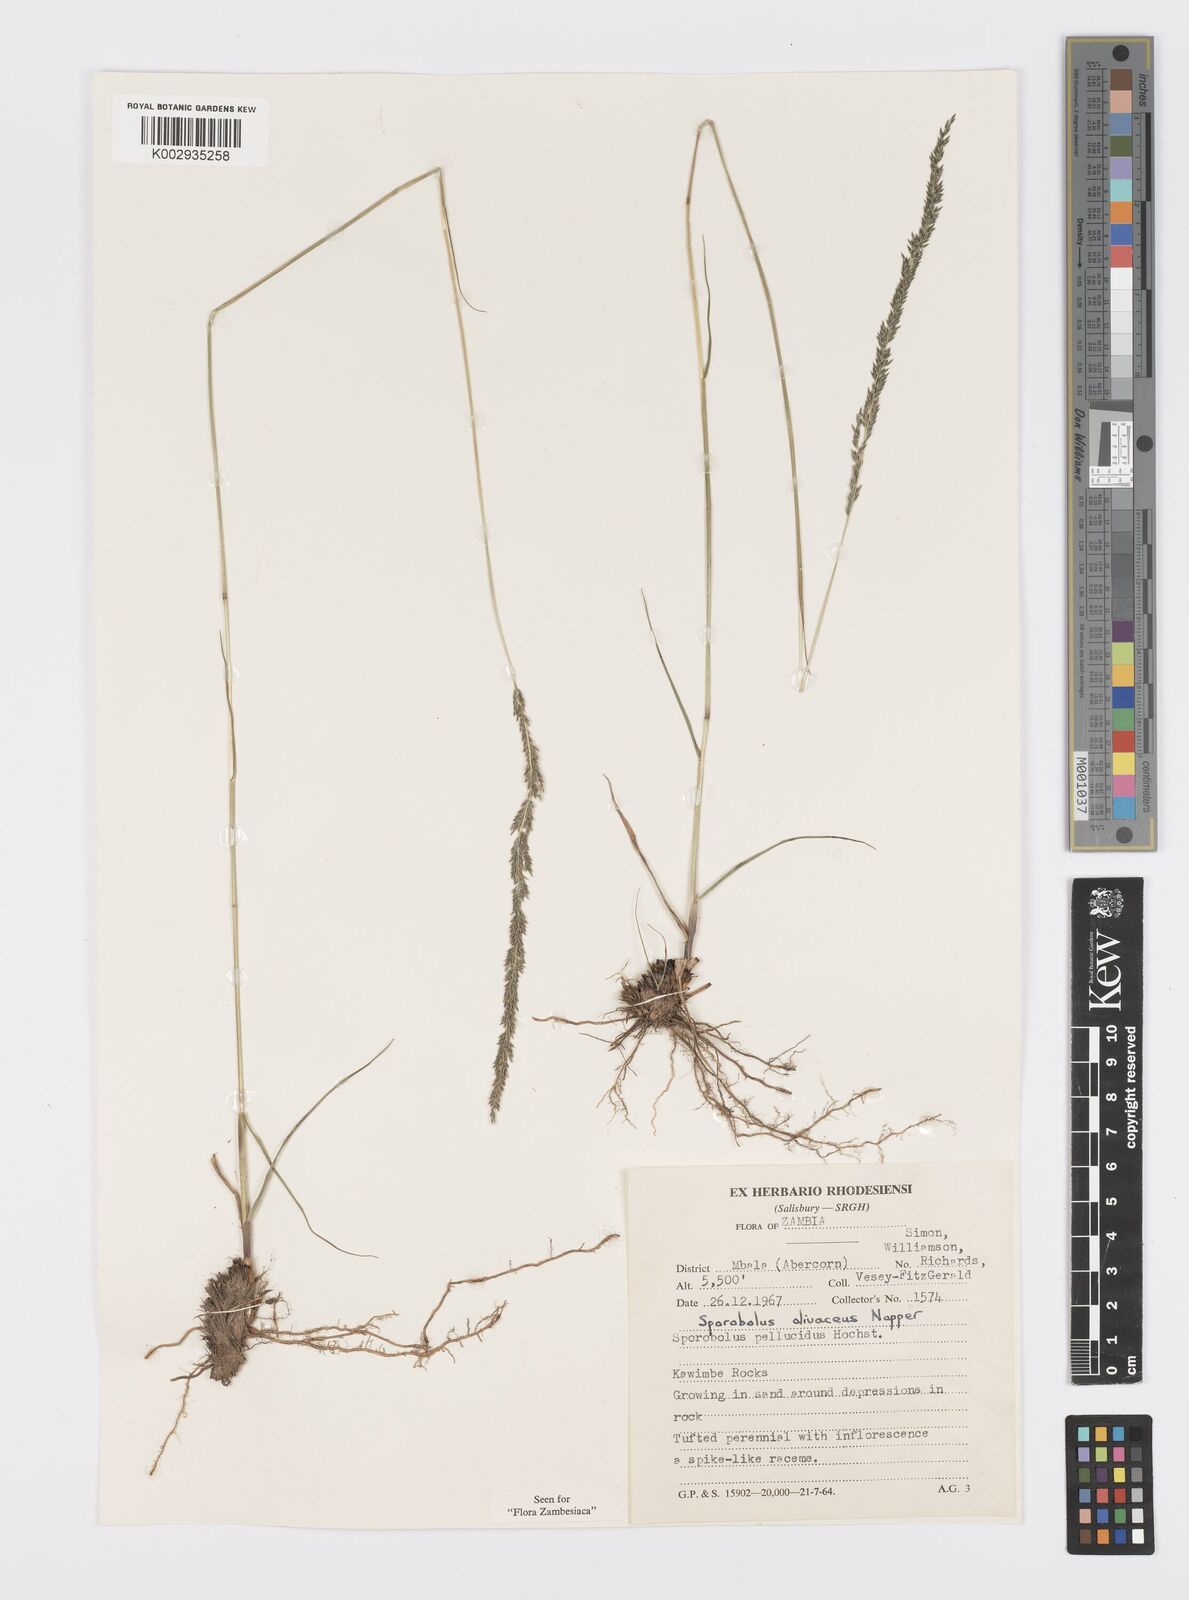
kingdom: Plantae
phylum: Tracheophyta
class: Liliopsida
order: Poales
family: Poaceae
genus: Sporobolus
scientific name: Sporobolus olivaceus
